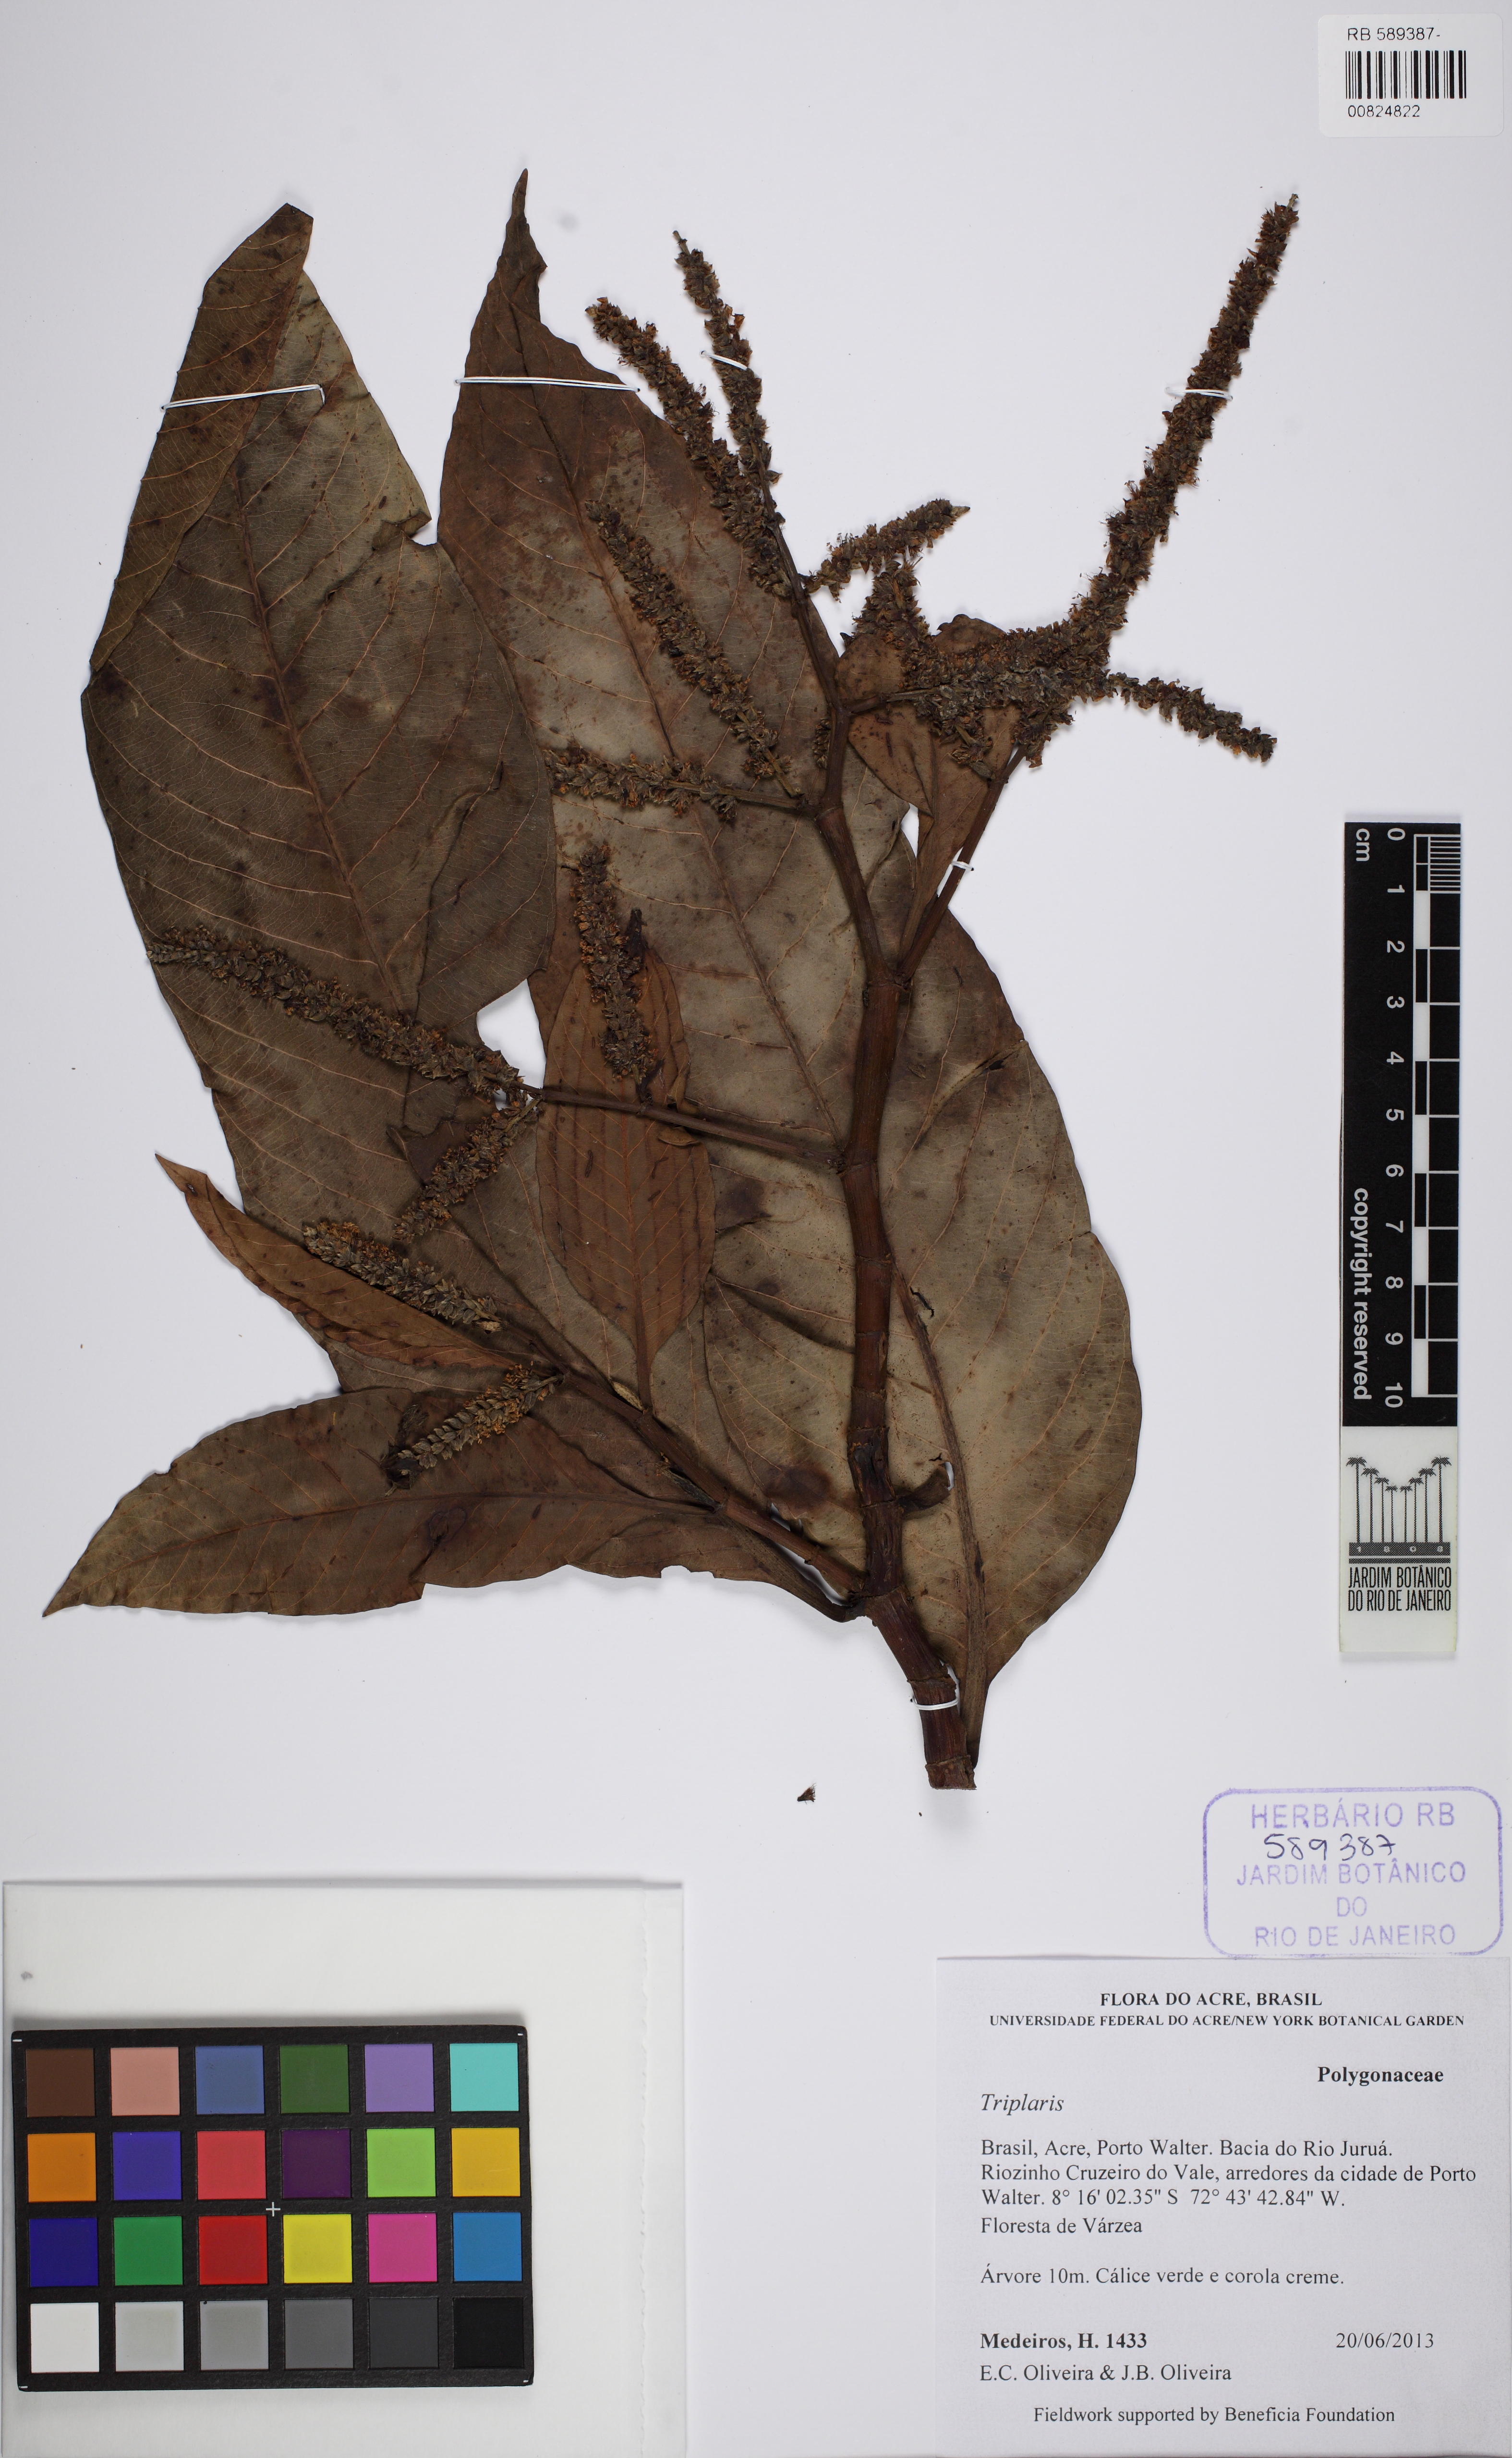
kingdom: Plantae
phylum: Tracheophyta
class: Magnoliopsida
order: Caryophyllales
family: Polygonaceae
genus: Triplaris
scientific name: Triplaris
